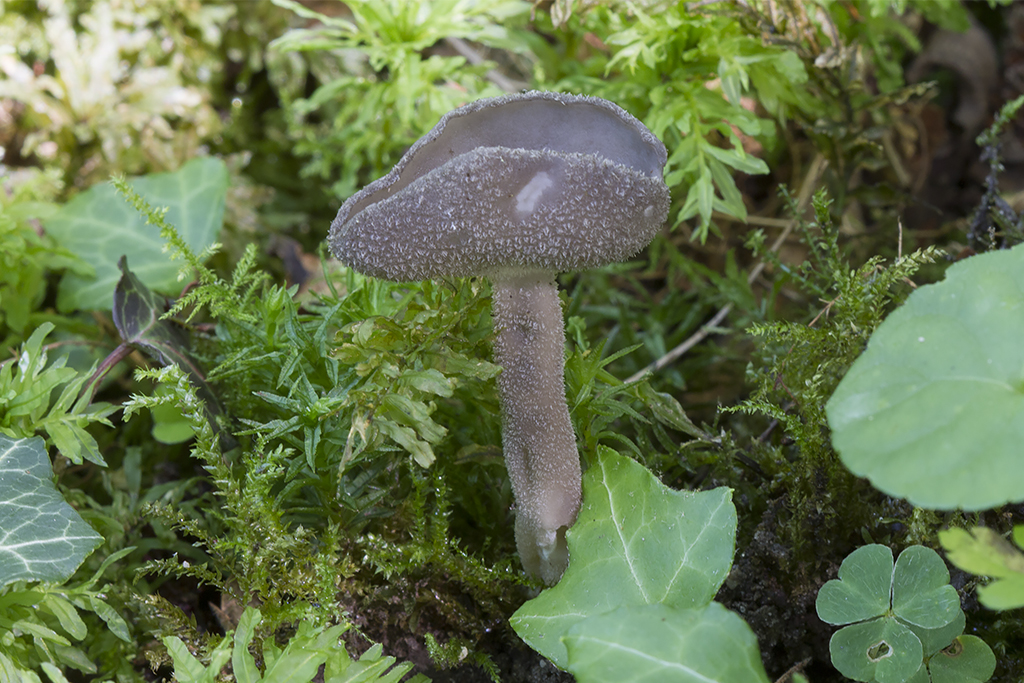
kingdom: Fungi
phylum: Ascomycota
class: Pezizomycetes
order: Pezizales
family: Helvellaceae
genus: Helvella
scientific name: Helvella macropus
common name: højstokket foldhat
